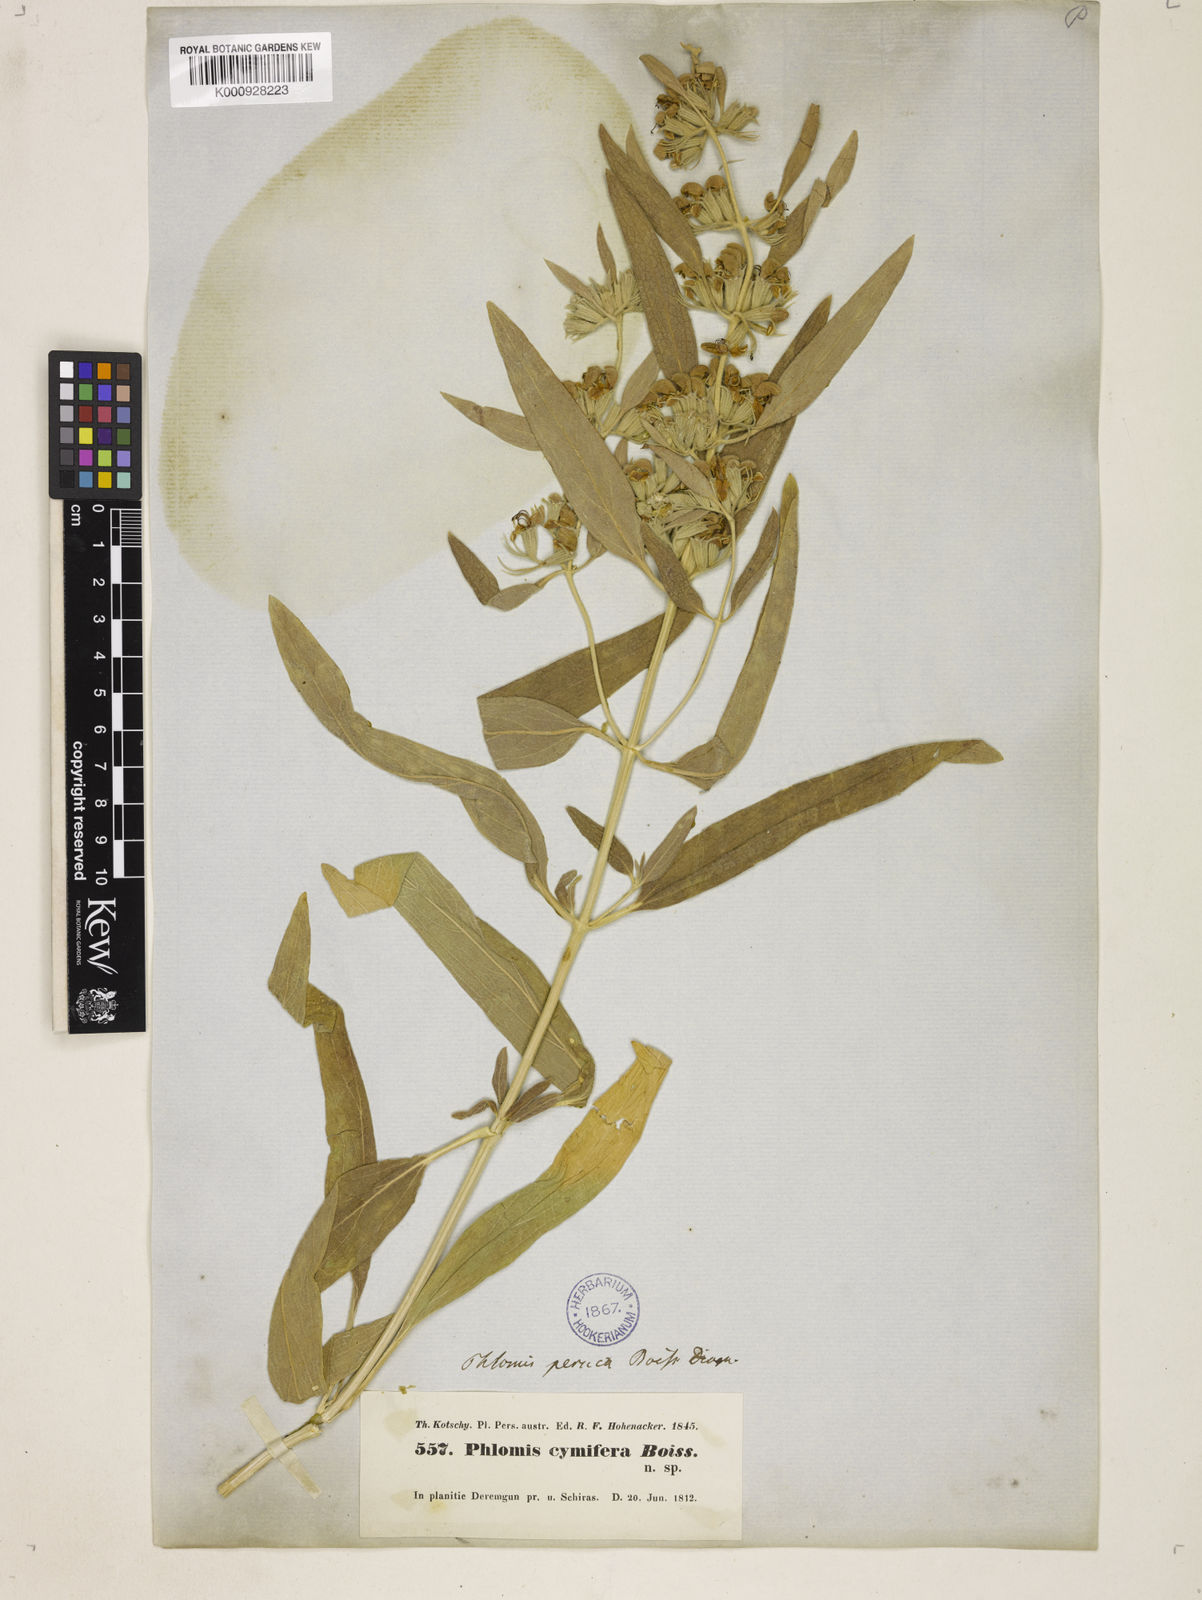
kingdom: Plantae
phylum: Tracheophyta
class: Magnoliopsida
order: Lamiales
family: Lamiaceae
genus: Phlomis
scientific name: Phlomis persica
